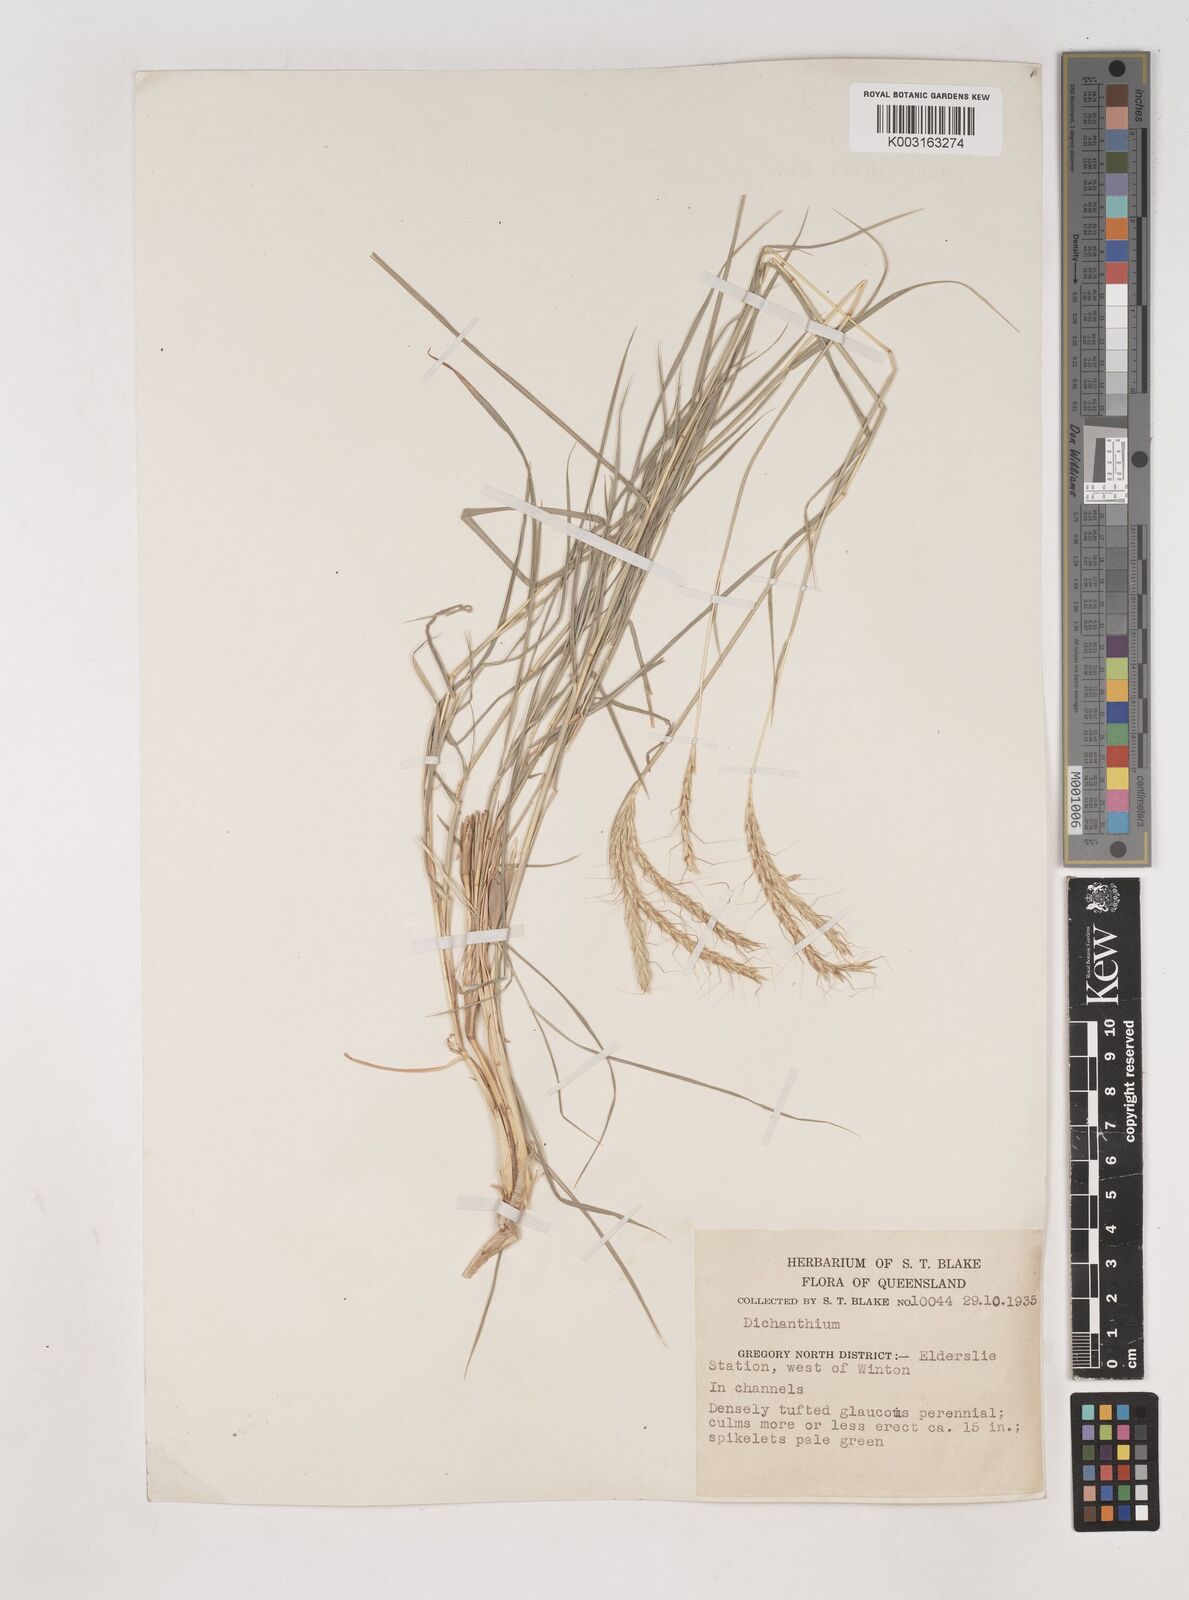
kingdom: Plantae
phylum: Tracheophyta
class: Liliopsida
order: Poales
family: Poaceae
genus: Dichanthium
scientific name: Dichanthium fecundum
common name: Bundle-bundle
